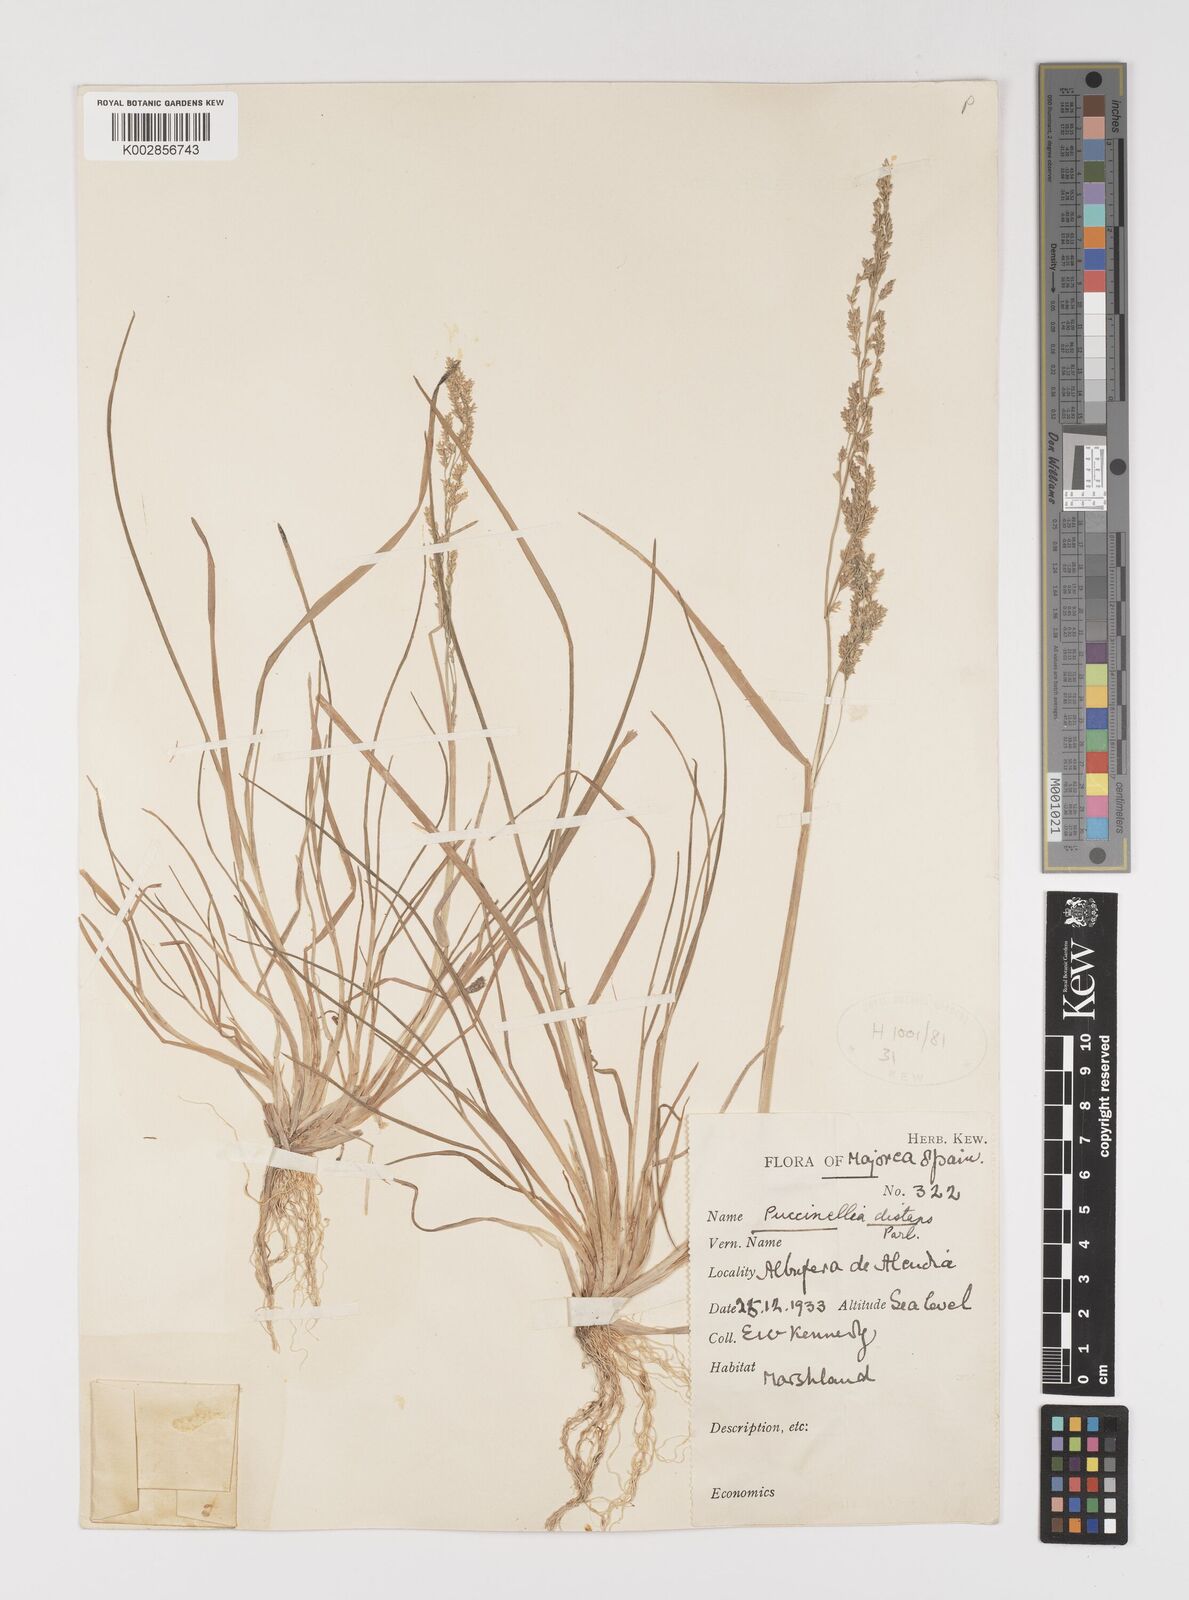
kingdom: Plantae
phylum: Tracheophyta
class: Liliopsida
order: Poales
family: Poaceae
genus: Puccinellia
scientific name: Puccinellia
